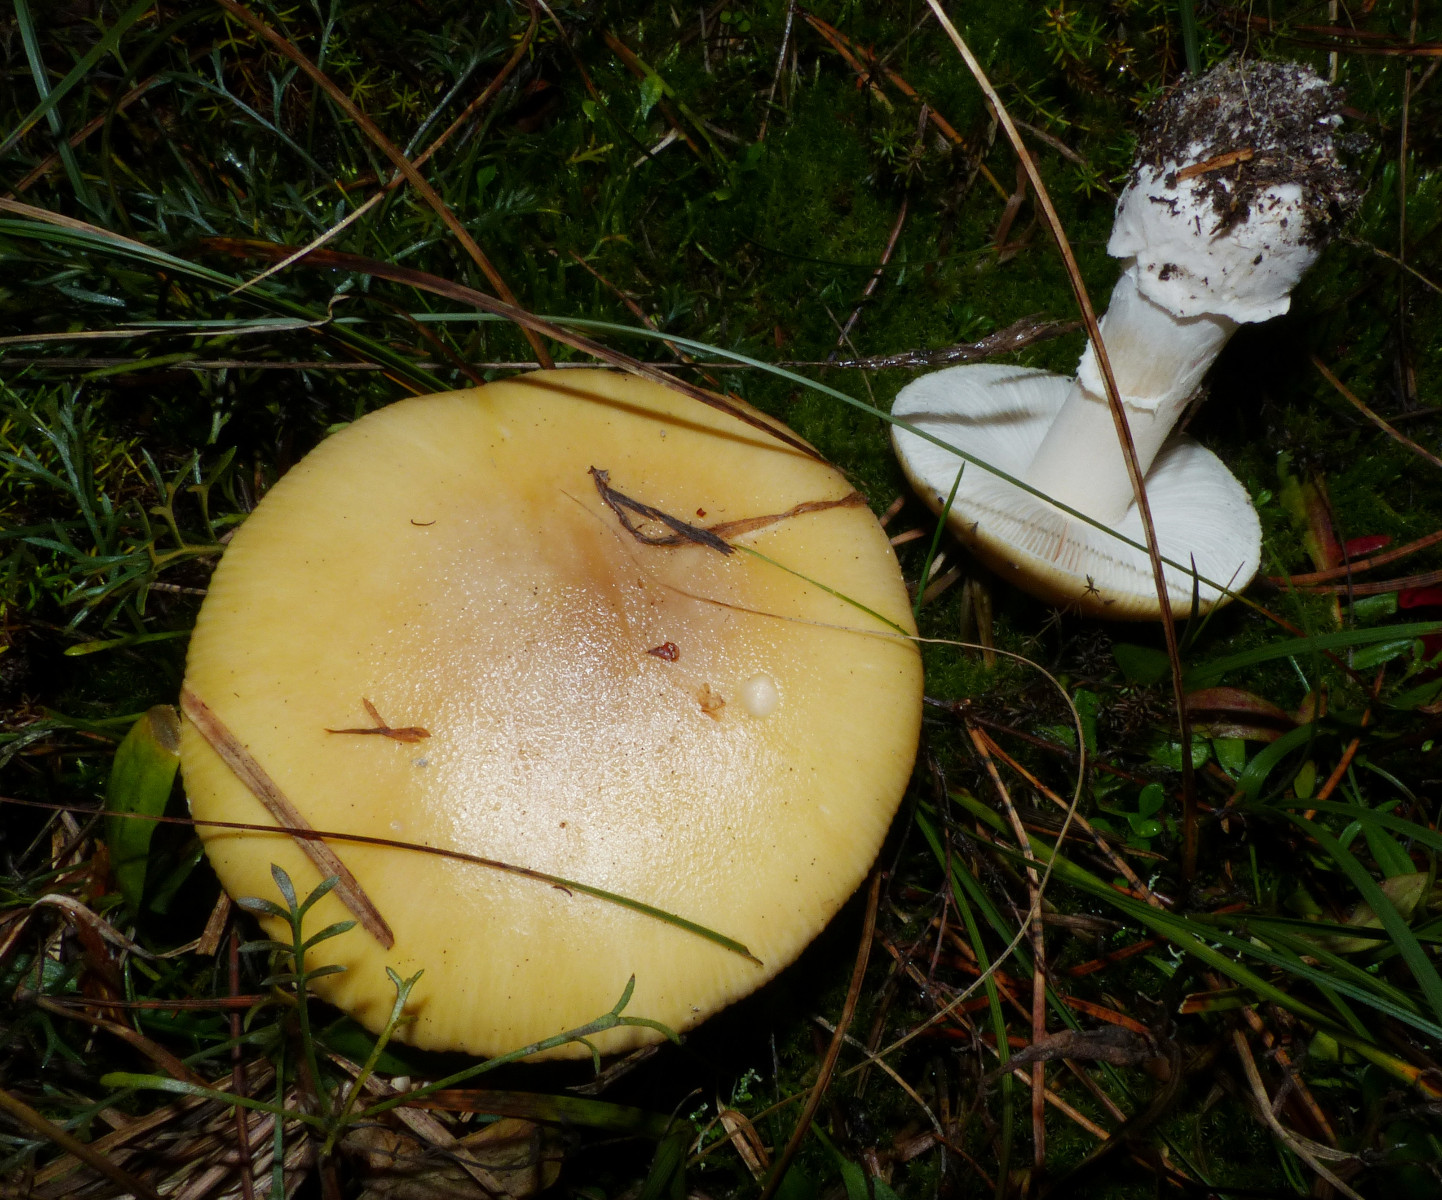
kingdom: Fungi
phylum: Basidiomycota
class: Agaricomycetes
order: Agaricales
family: Amanitaceae
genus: Amanita
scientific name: Amanita gemmata
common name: okkergul fluesvamp
